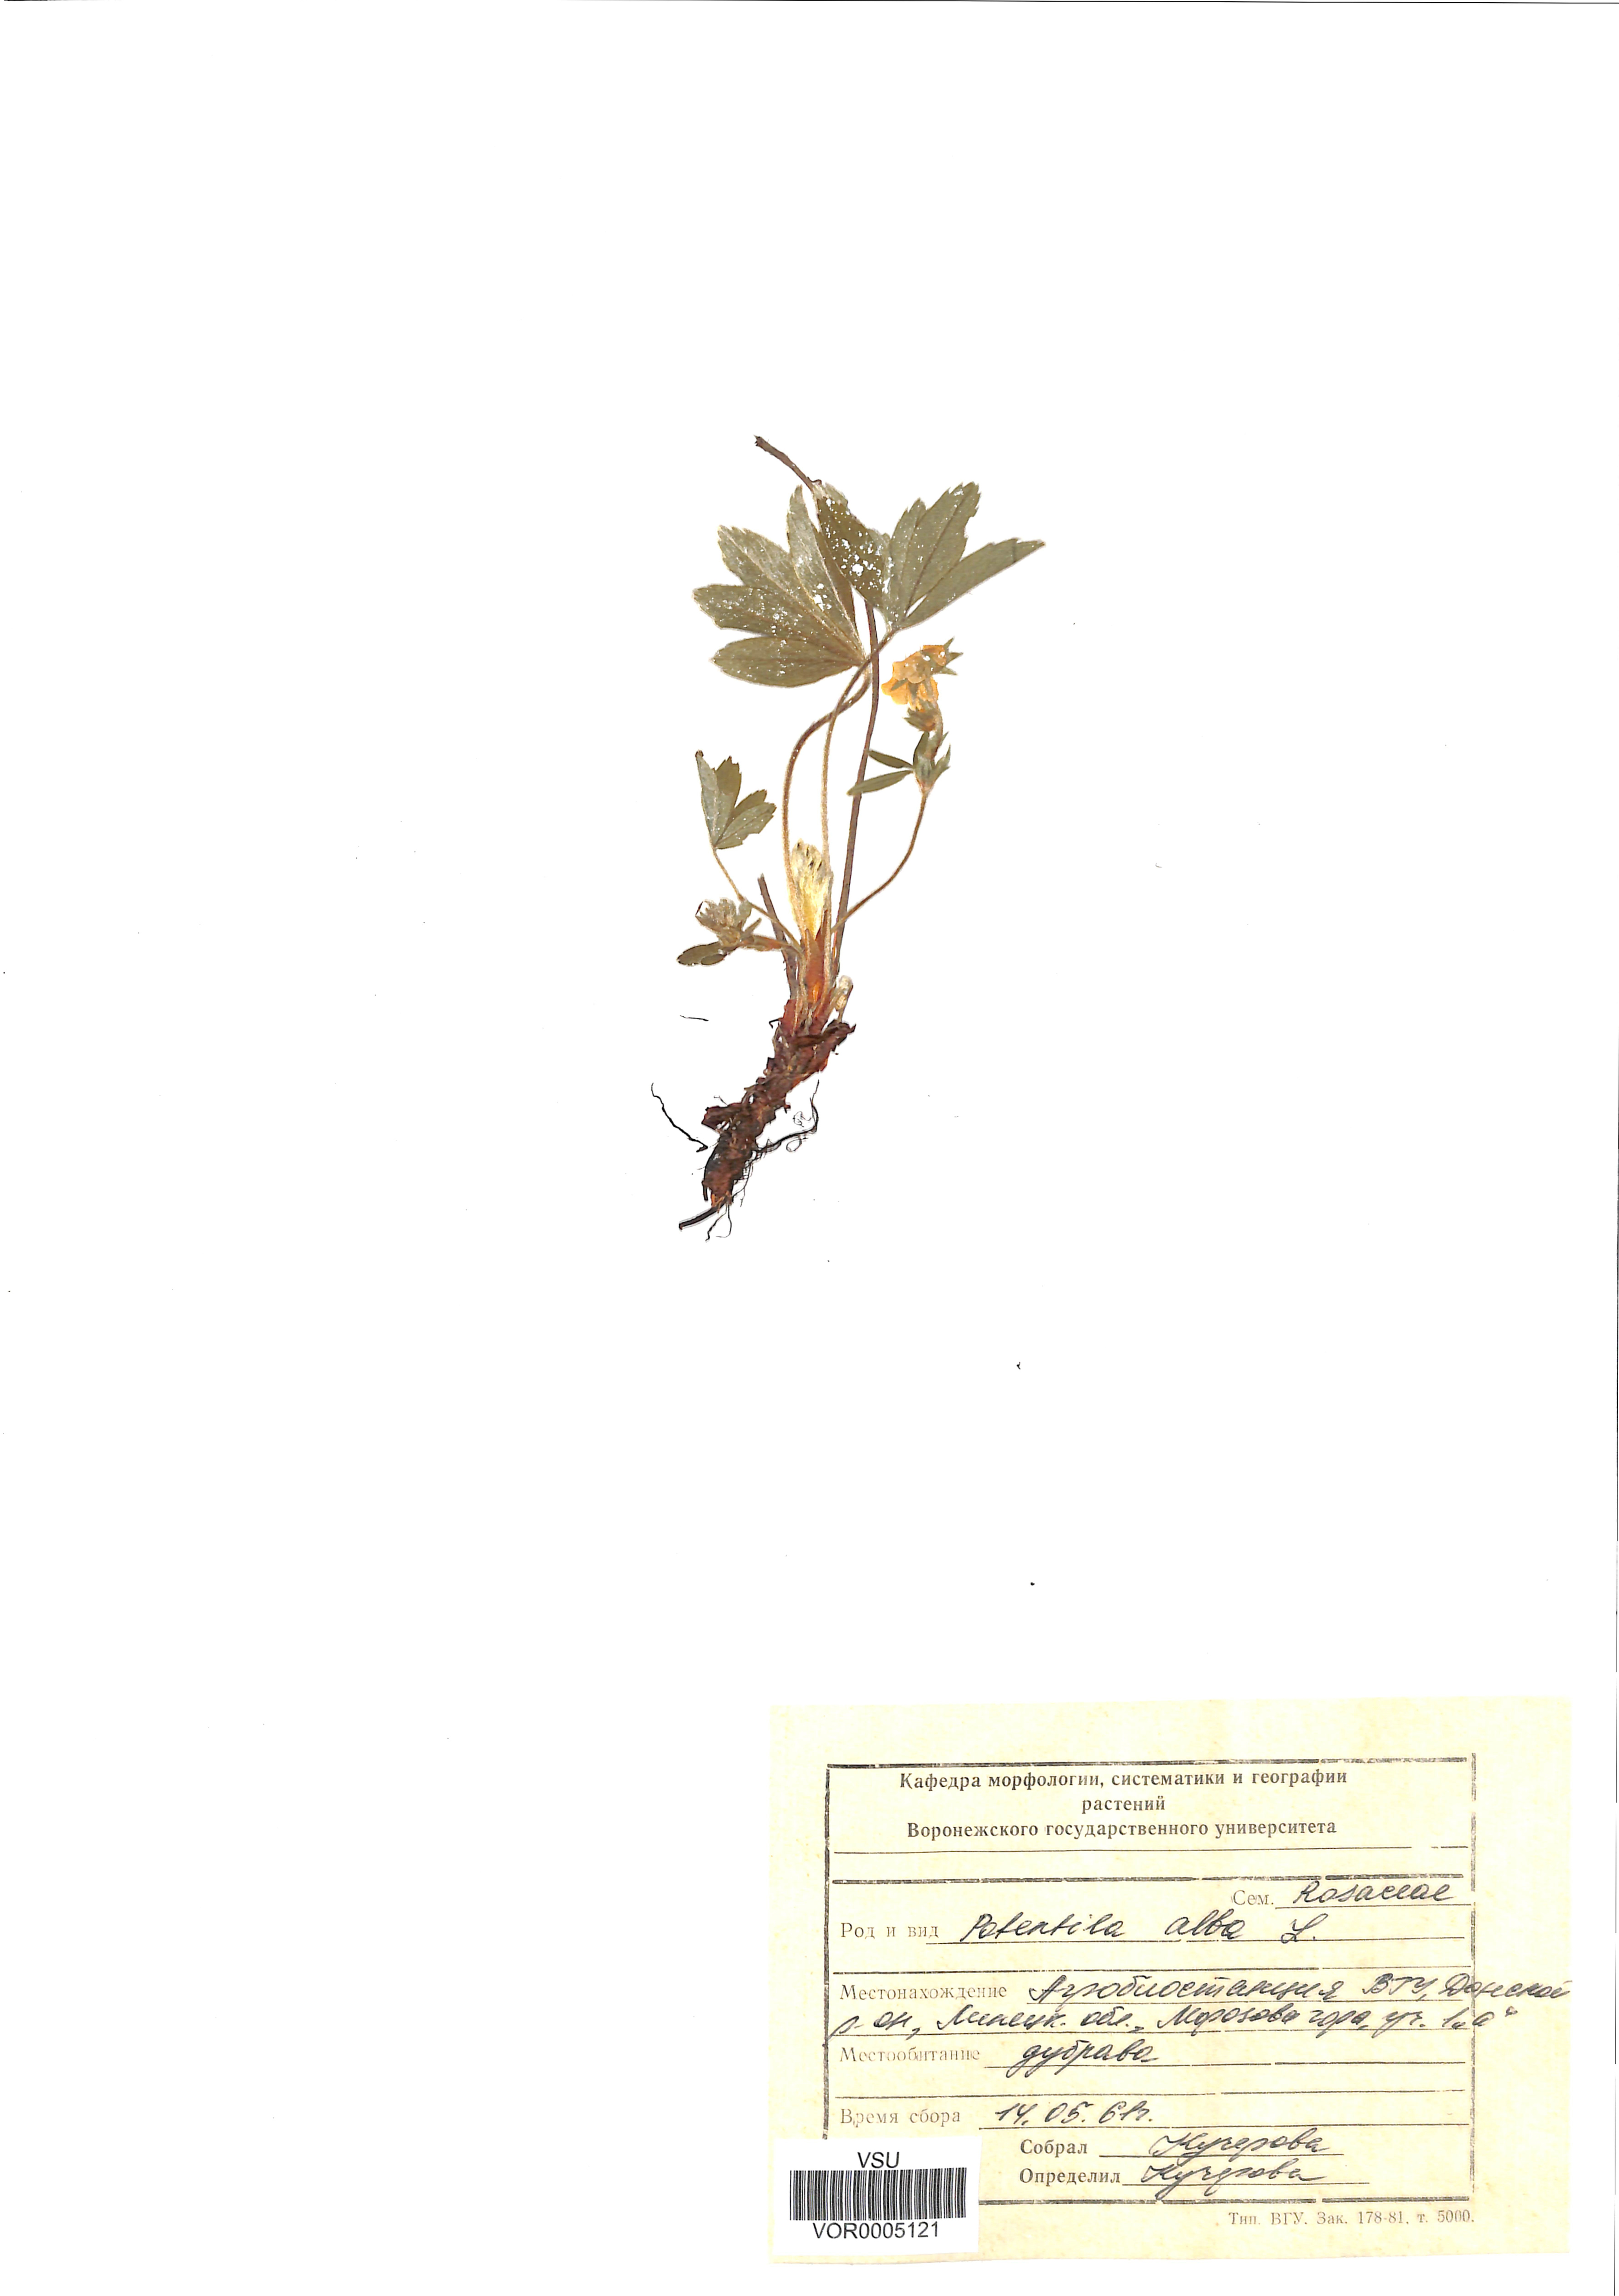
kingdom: Plantae
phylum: Tracheophyta
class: Magnoliopsida
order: Rosales
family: Rosaceae
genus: Potentilla
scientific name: Potentilla alba
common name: White cinquefoil
